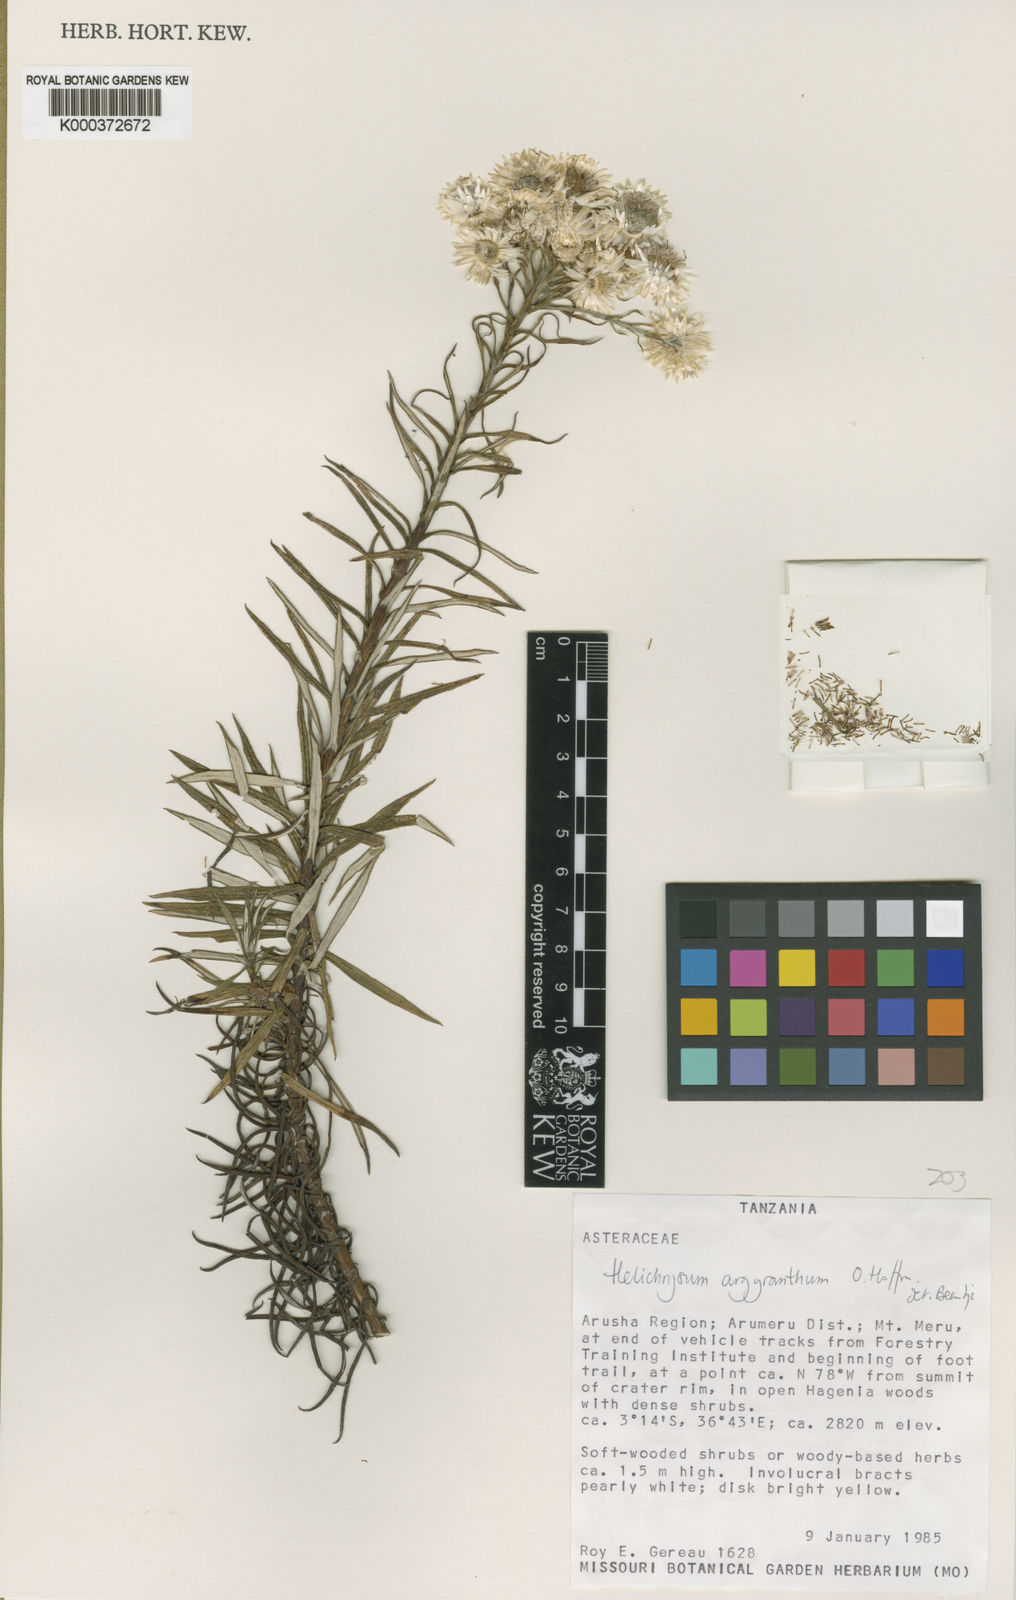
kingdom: Plantae
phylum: Tracheophyta
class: Magnoliopsida
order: Asterales
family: Asteraceae
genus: Helichrysum
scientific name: Helichrysum argyranthum
